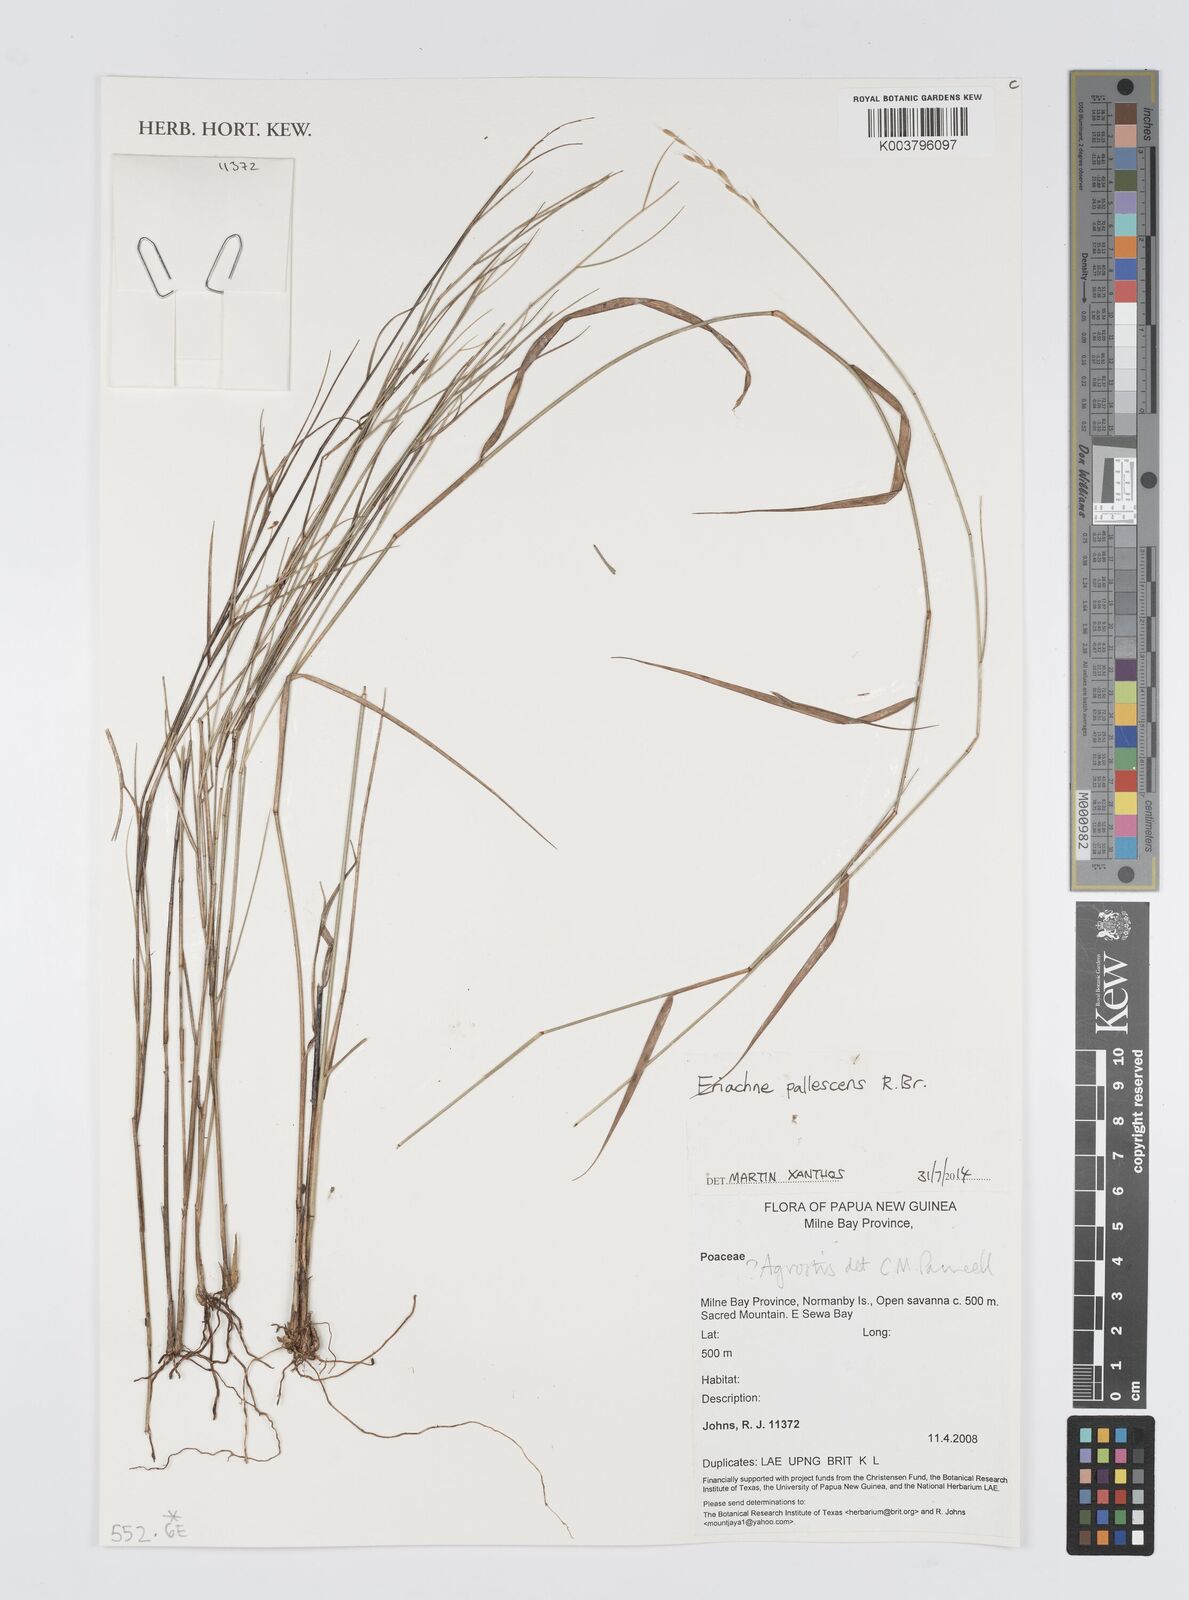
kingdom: Plantae
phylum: Tracheophyta
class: Liliopsida
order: Poales
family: Poaceae
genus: Digitaria
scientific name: Digitaria spec
